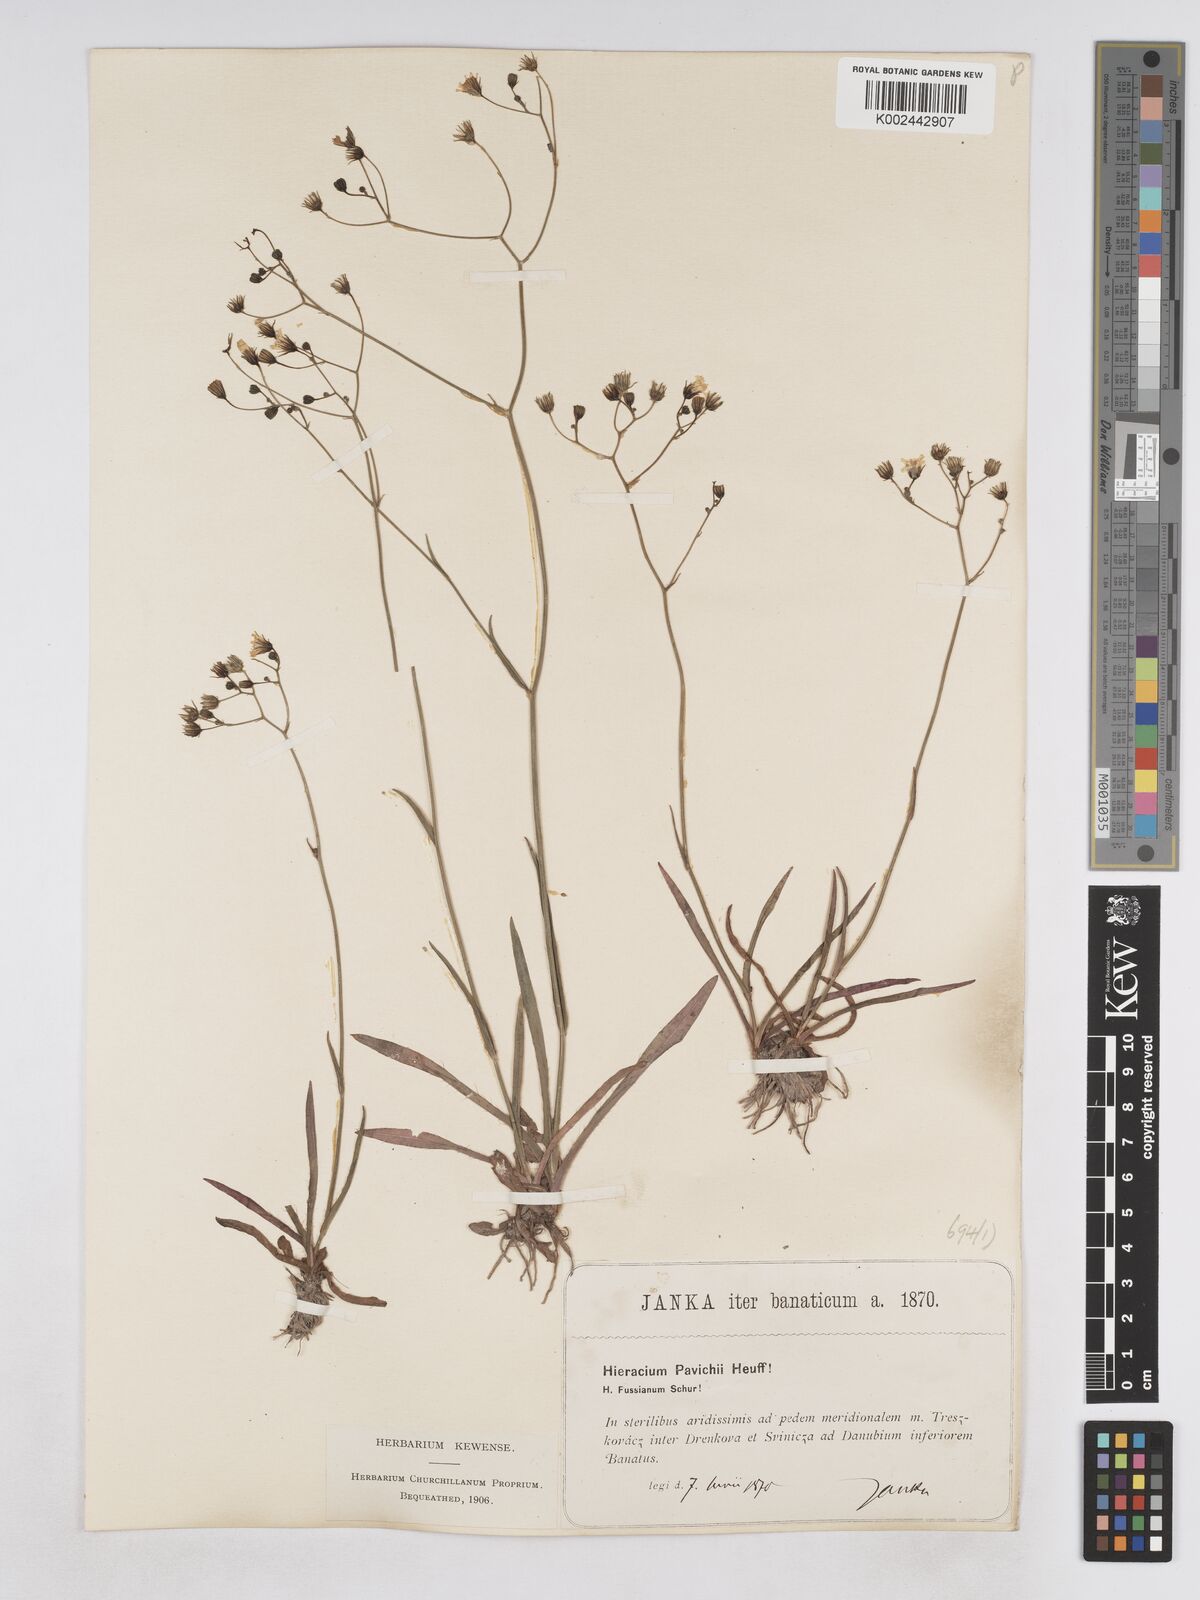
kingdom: Plantae
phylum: Tracheophyta
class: Magnoliopsida
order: Asterales
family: Asteraceae
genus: Pilosella
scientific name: Pilosella pavichii
